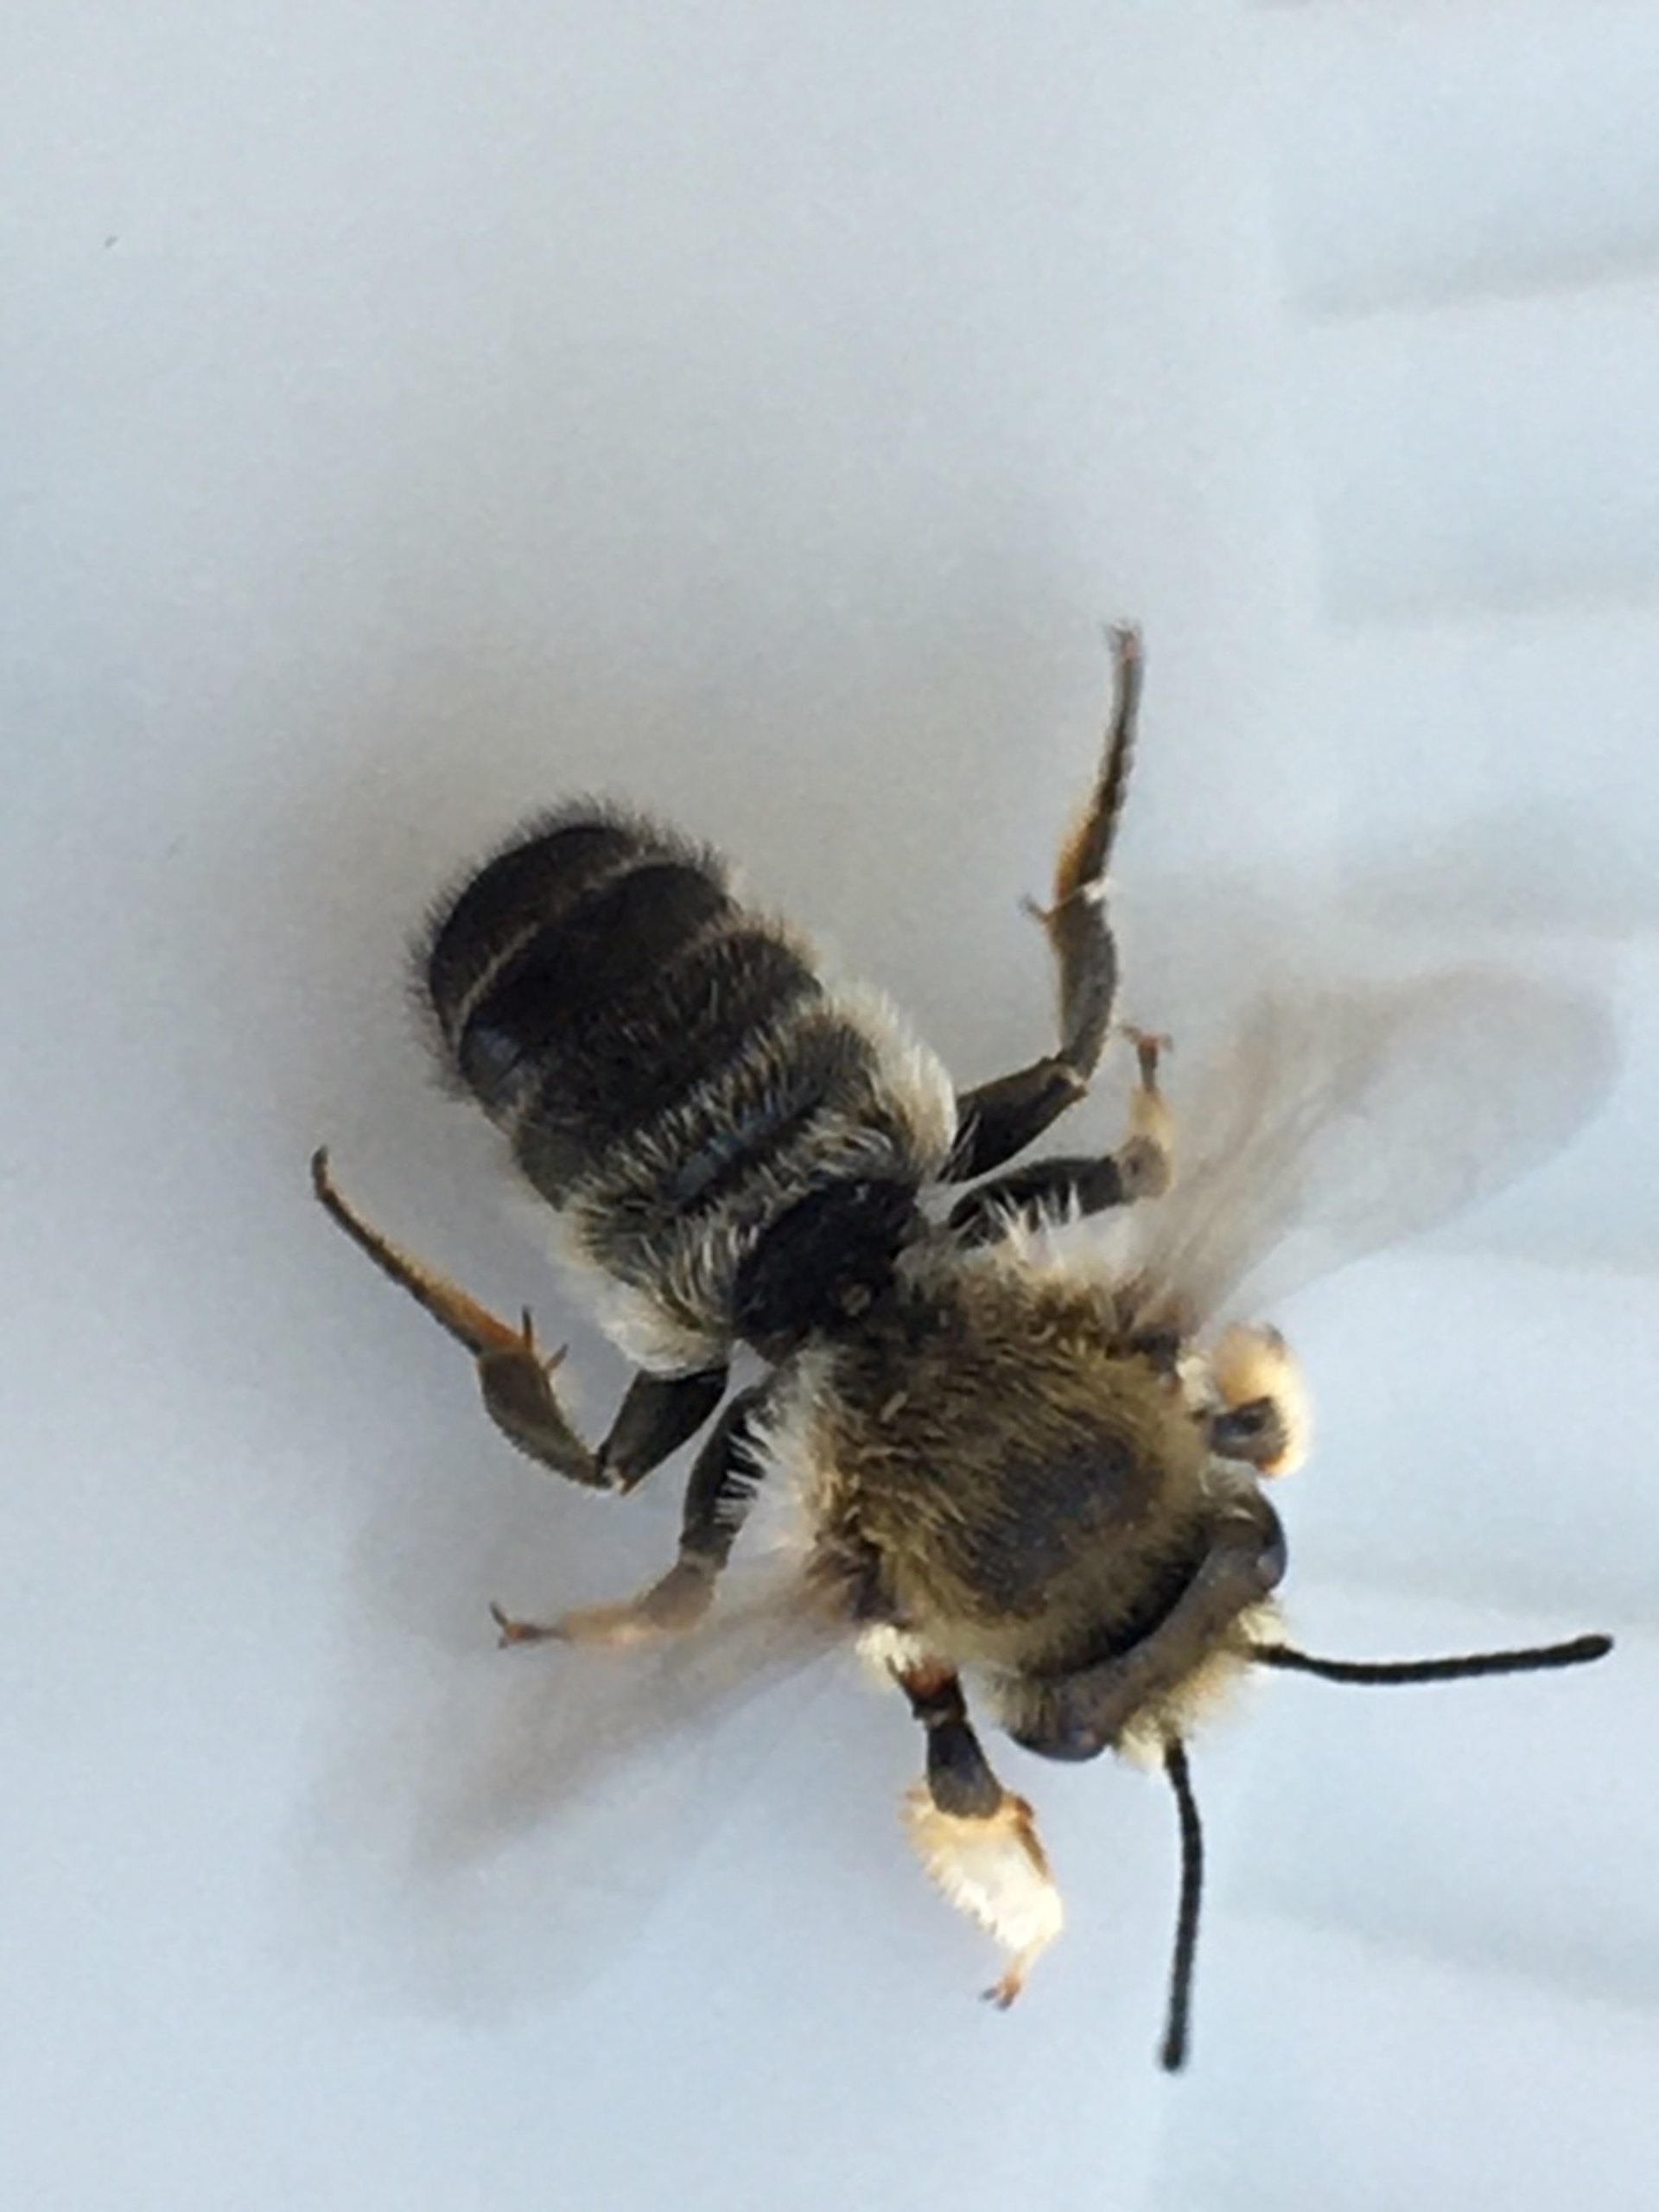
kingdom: Animalia
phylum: Arthropoda
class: Insecta
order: Hymenoptera
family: Megachilidae
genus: Megachile
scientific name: Megachile willughbiella
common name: Træboende bladskærerbi
